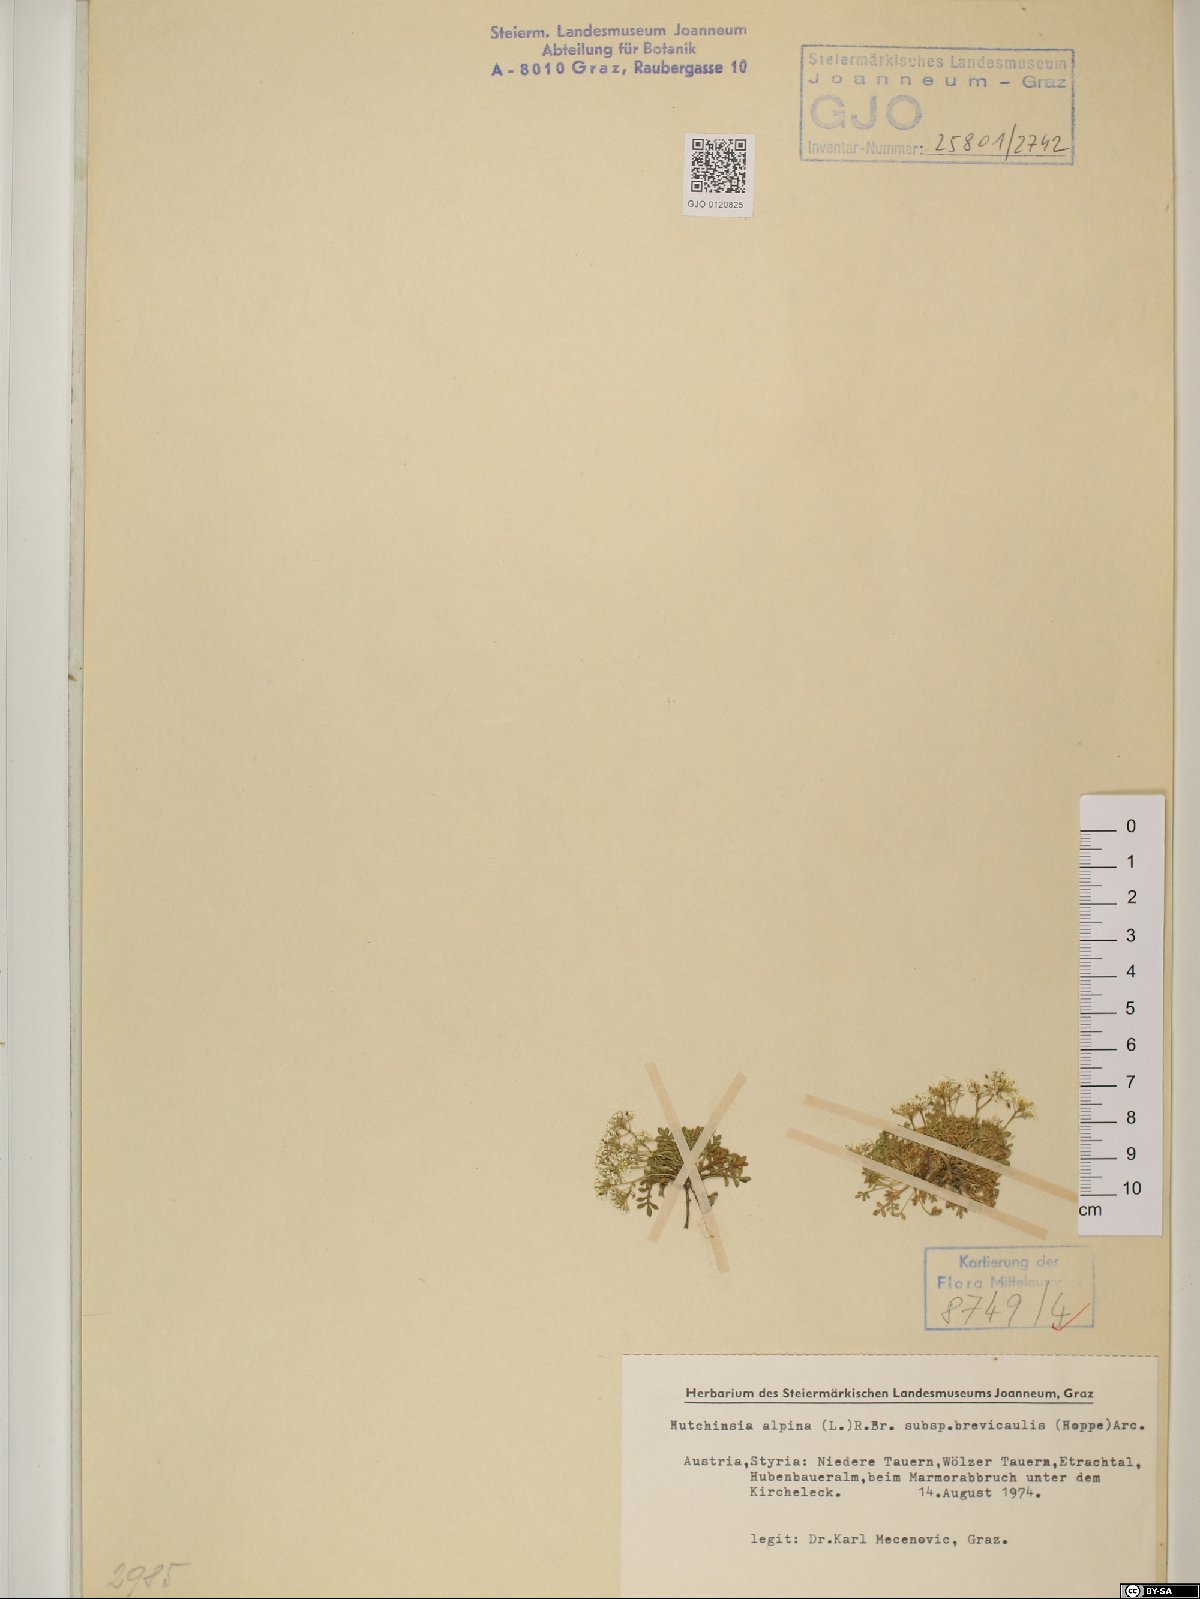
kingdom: Plantae
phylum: Tracheophyta
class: Magnoliopsida
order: Brassicales
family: Brassicaceae
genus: Hornungia
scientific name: Hornungia alpina
